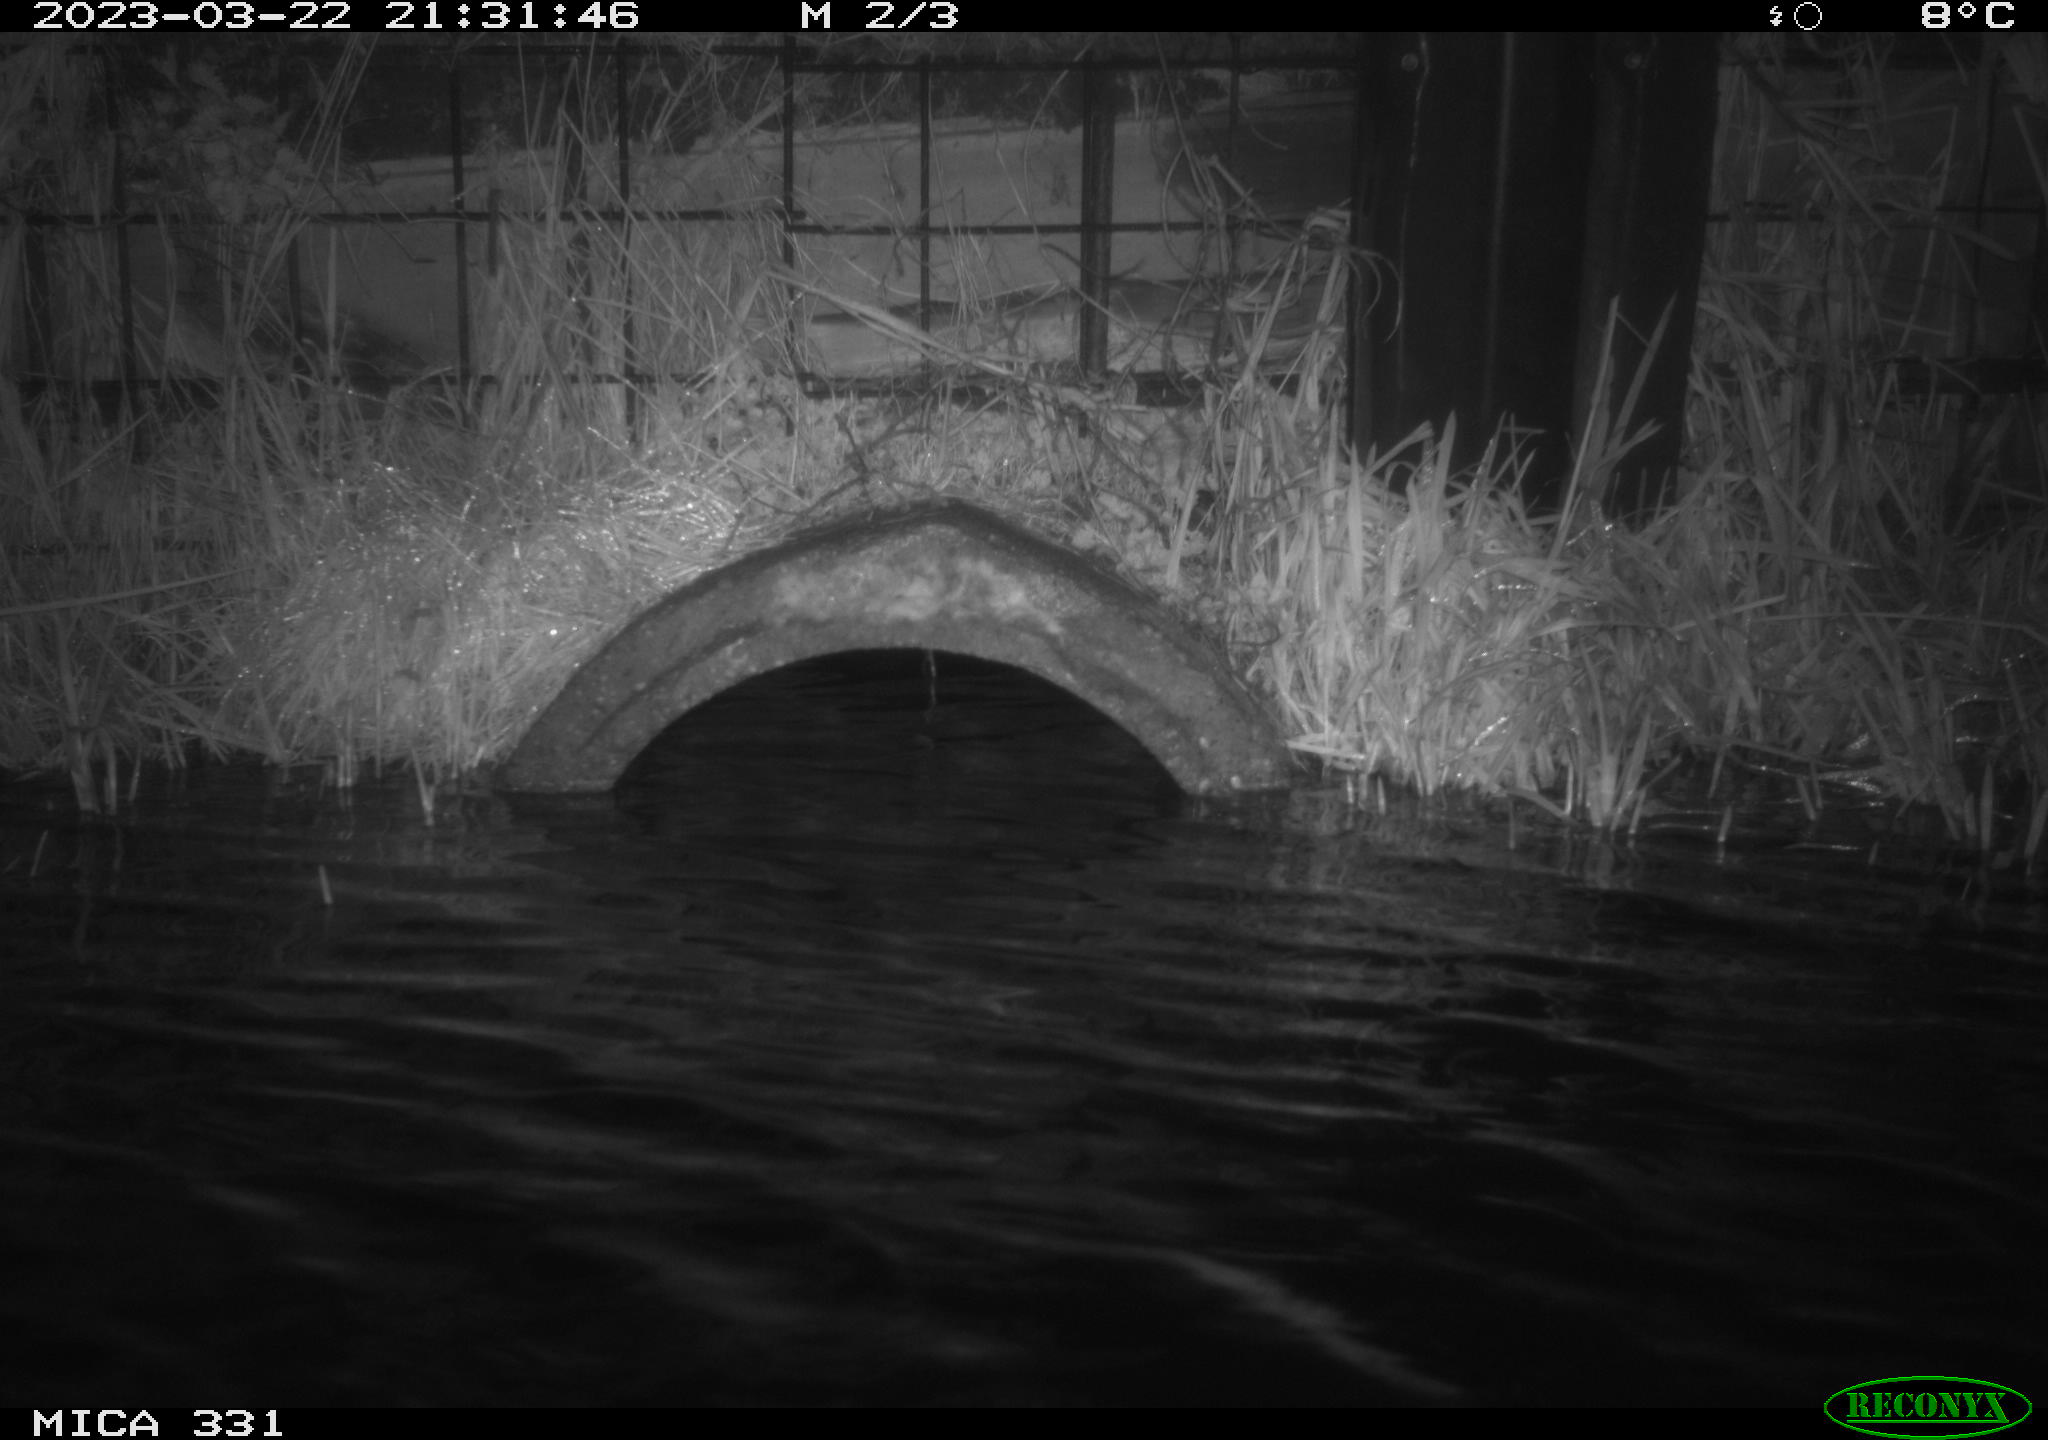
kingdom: Animalia
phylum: Chordata
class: Mammalia
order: Rodentia
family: Muridae
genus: Rattus
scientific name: Rattus norvegicus
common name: Brown rat
